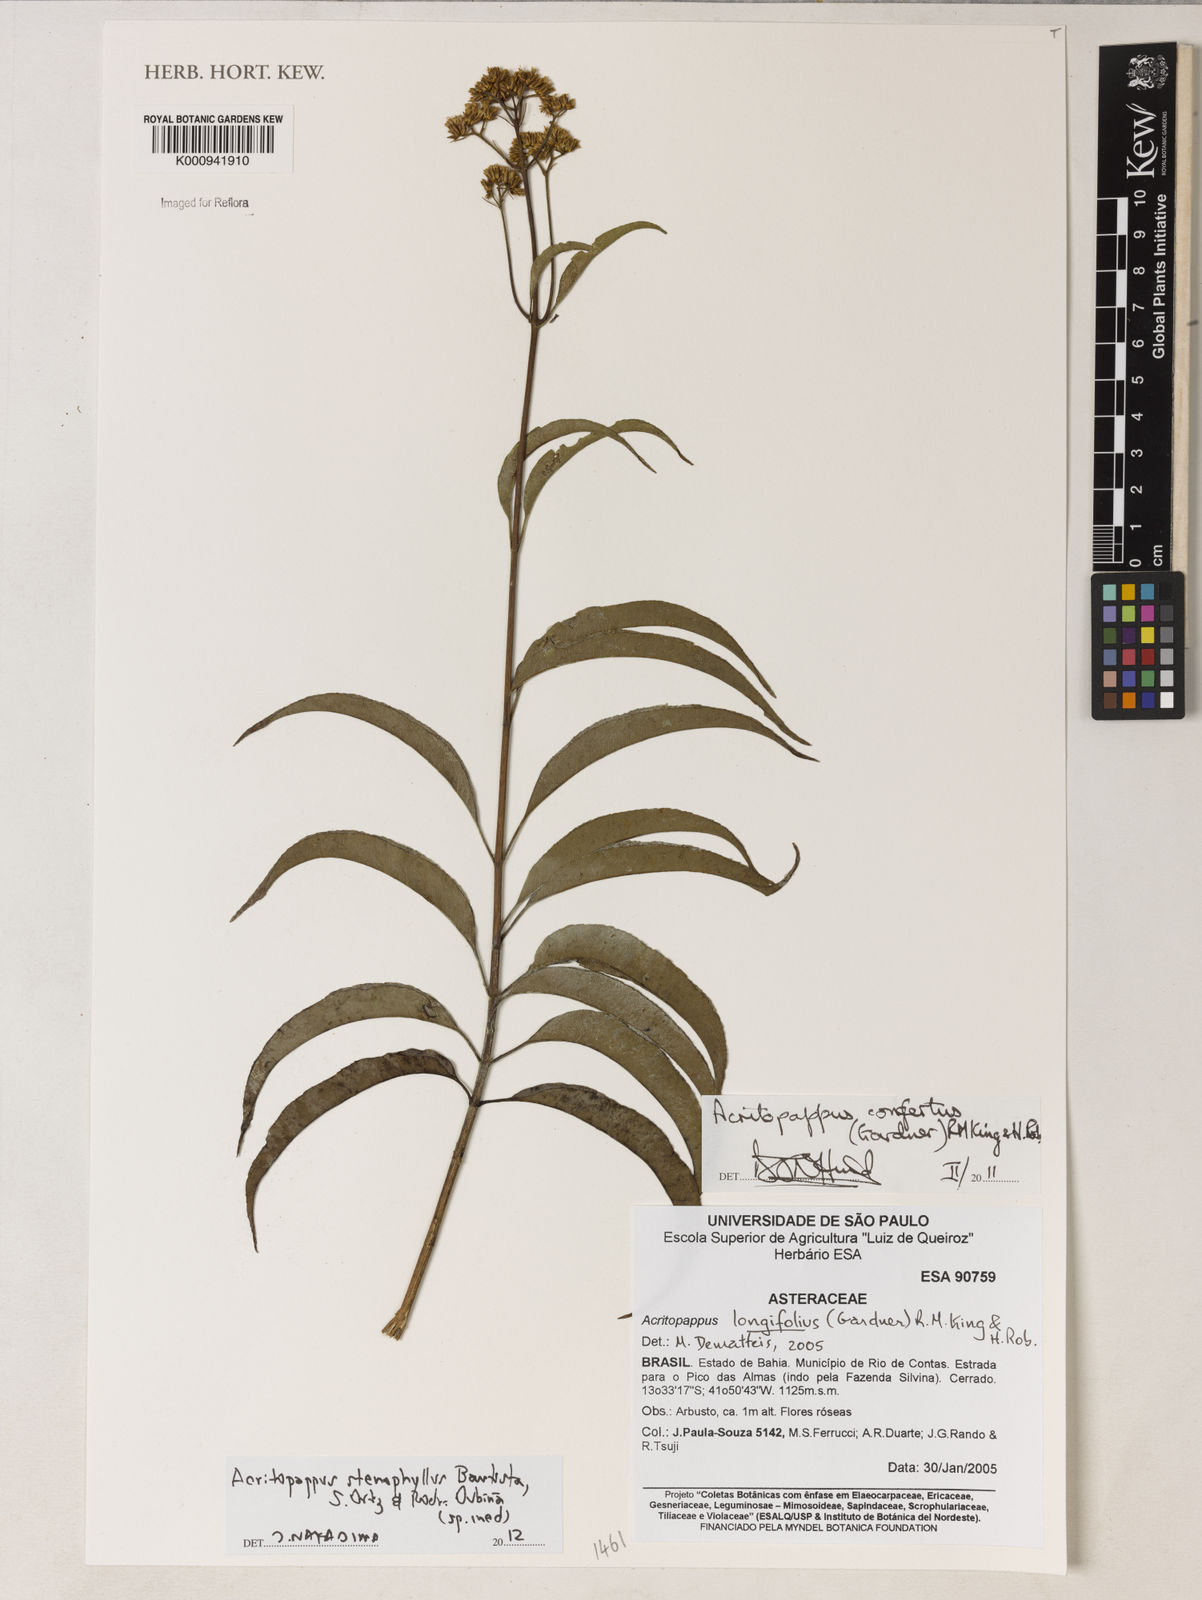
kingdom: Plantae
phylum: Tracheophyta
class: Magnoliopsida
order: Asterales
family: Asteraceae
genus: Acritopappus
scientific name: Acritopappus stenophyllus
